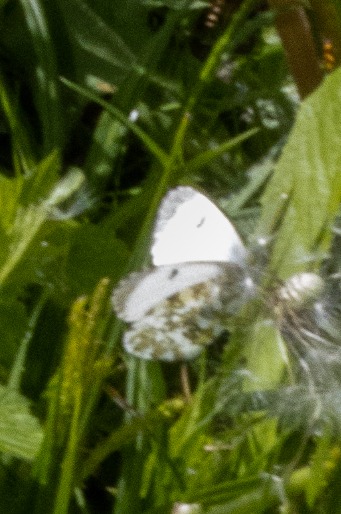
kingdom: Animalia
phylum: Arthropoda
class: Insecta
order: Lepidoptera
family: Pieridae
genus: Anthocharis
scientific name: Anthocharis cardamines
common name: Aurora
